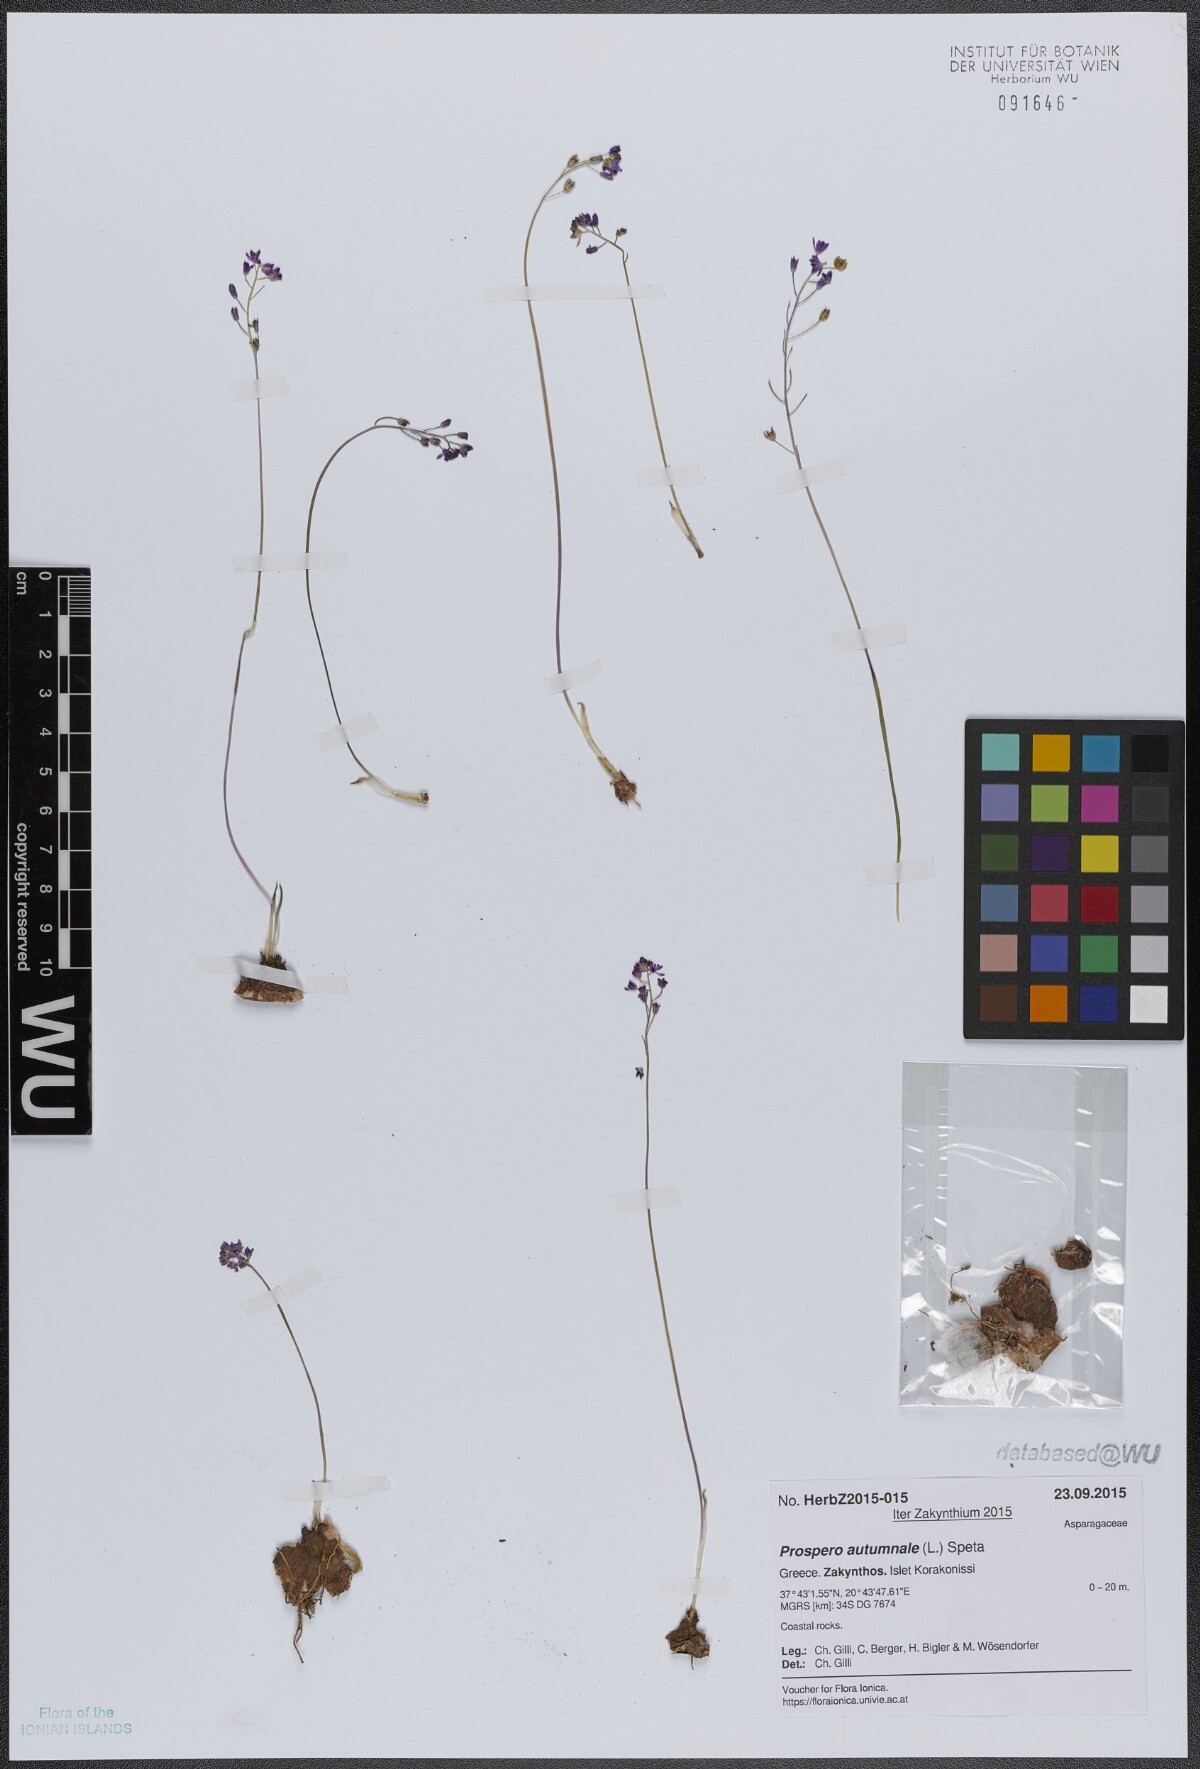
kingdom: Plantae
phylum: Tracheophyta
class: Liliopsida
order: Asparagales
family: Asparagaceae
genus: Prospero
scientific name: Prospero autumnale
